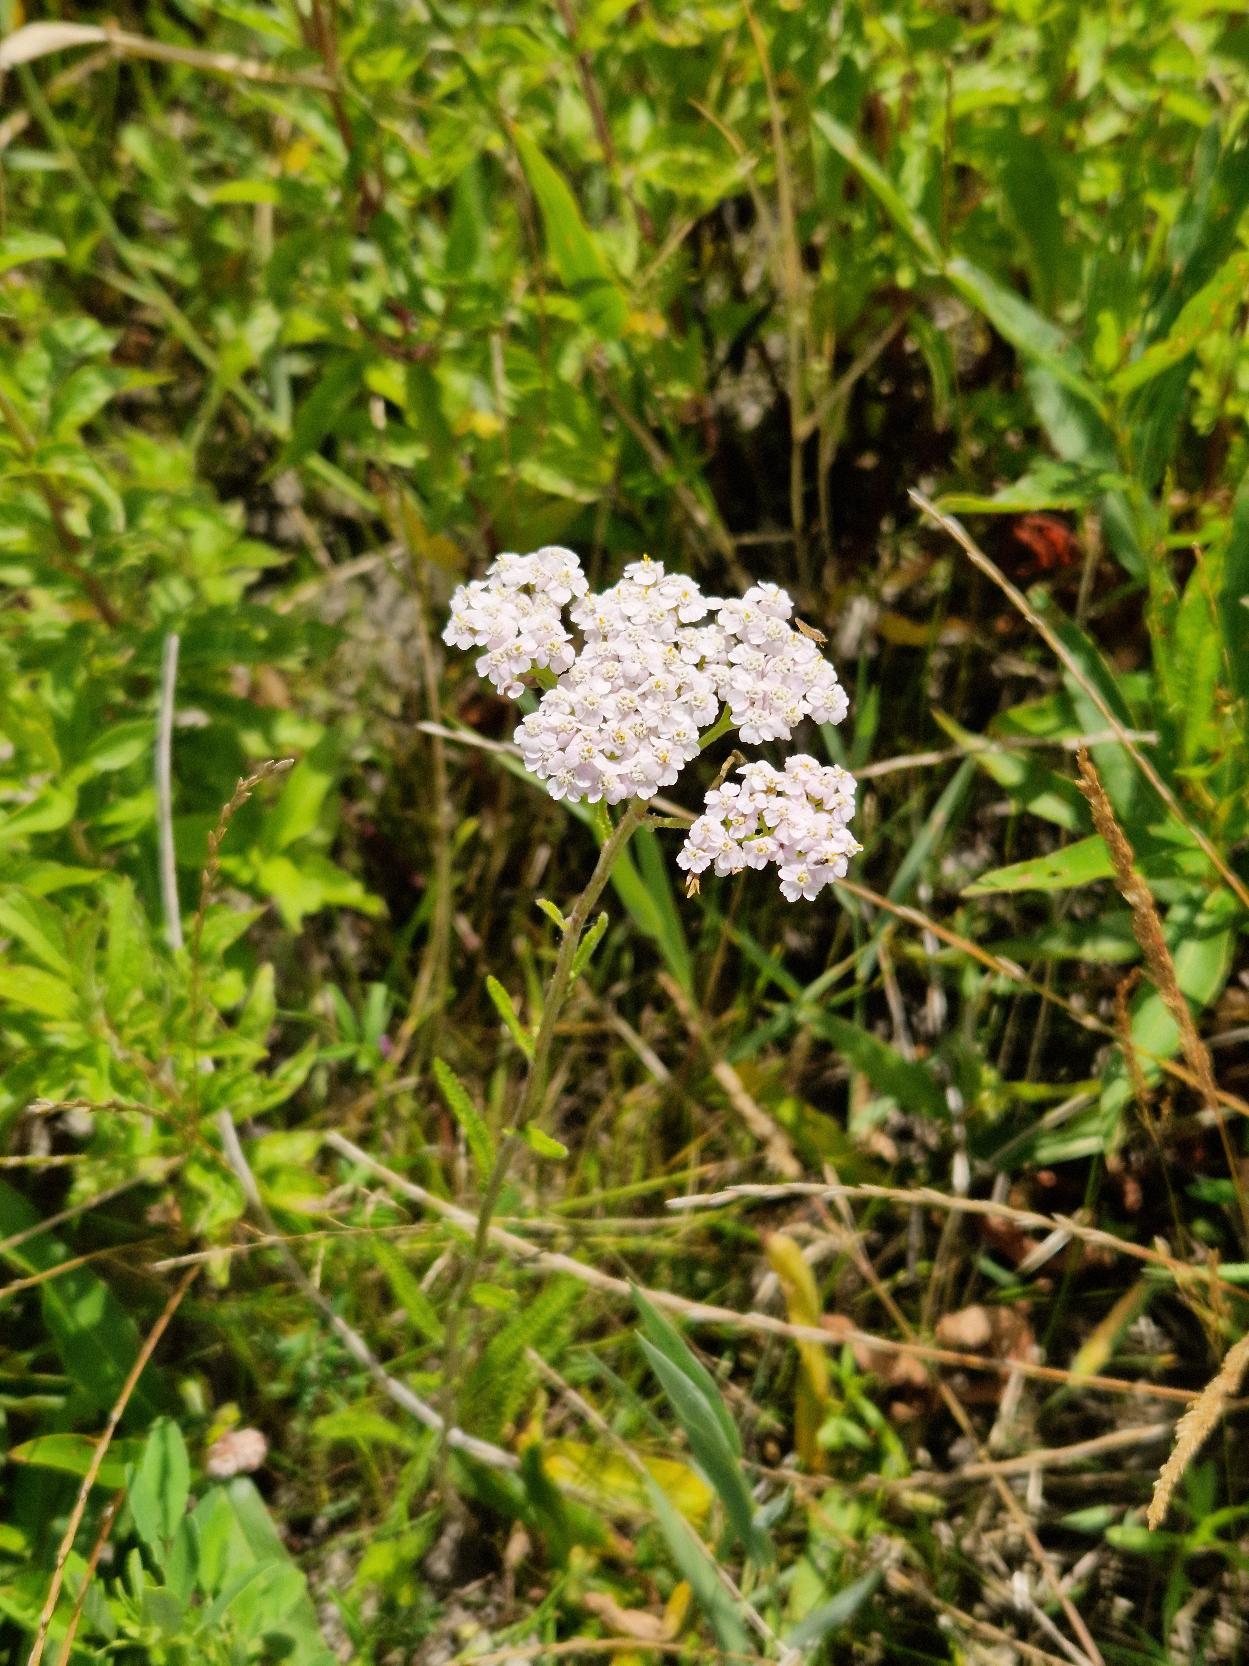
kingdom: Plantae
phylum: Tracheophyta
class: Magnoliopsida
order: Asterales
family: Asteraceae
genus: Achillea
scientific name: Achillea millefolium
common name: Almindelig røllike
